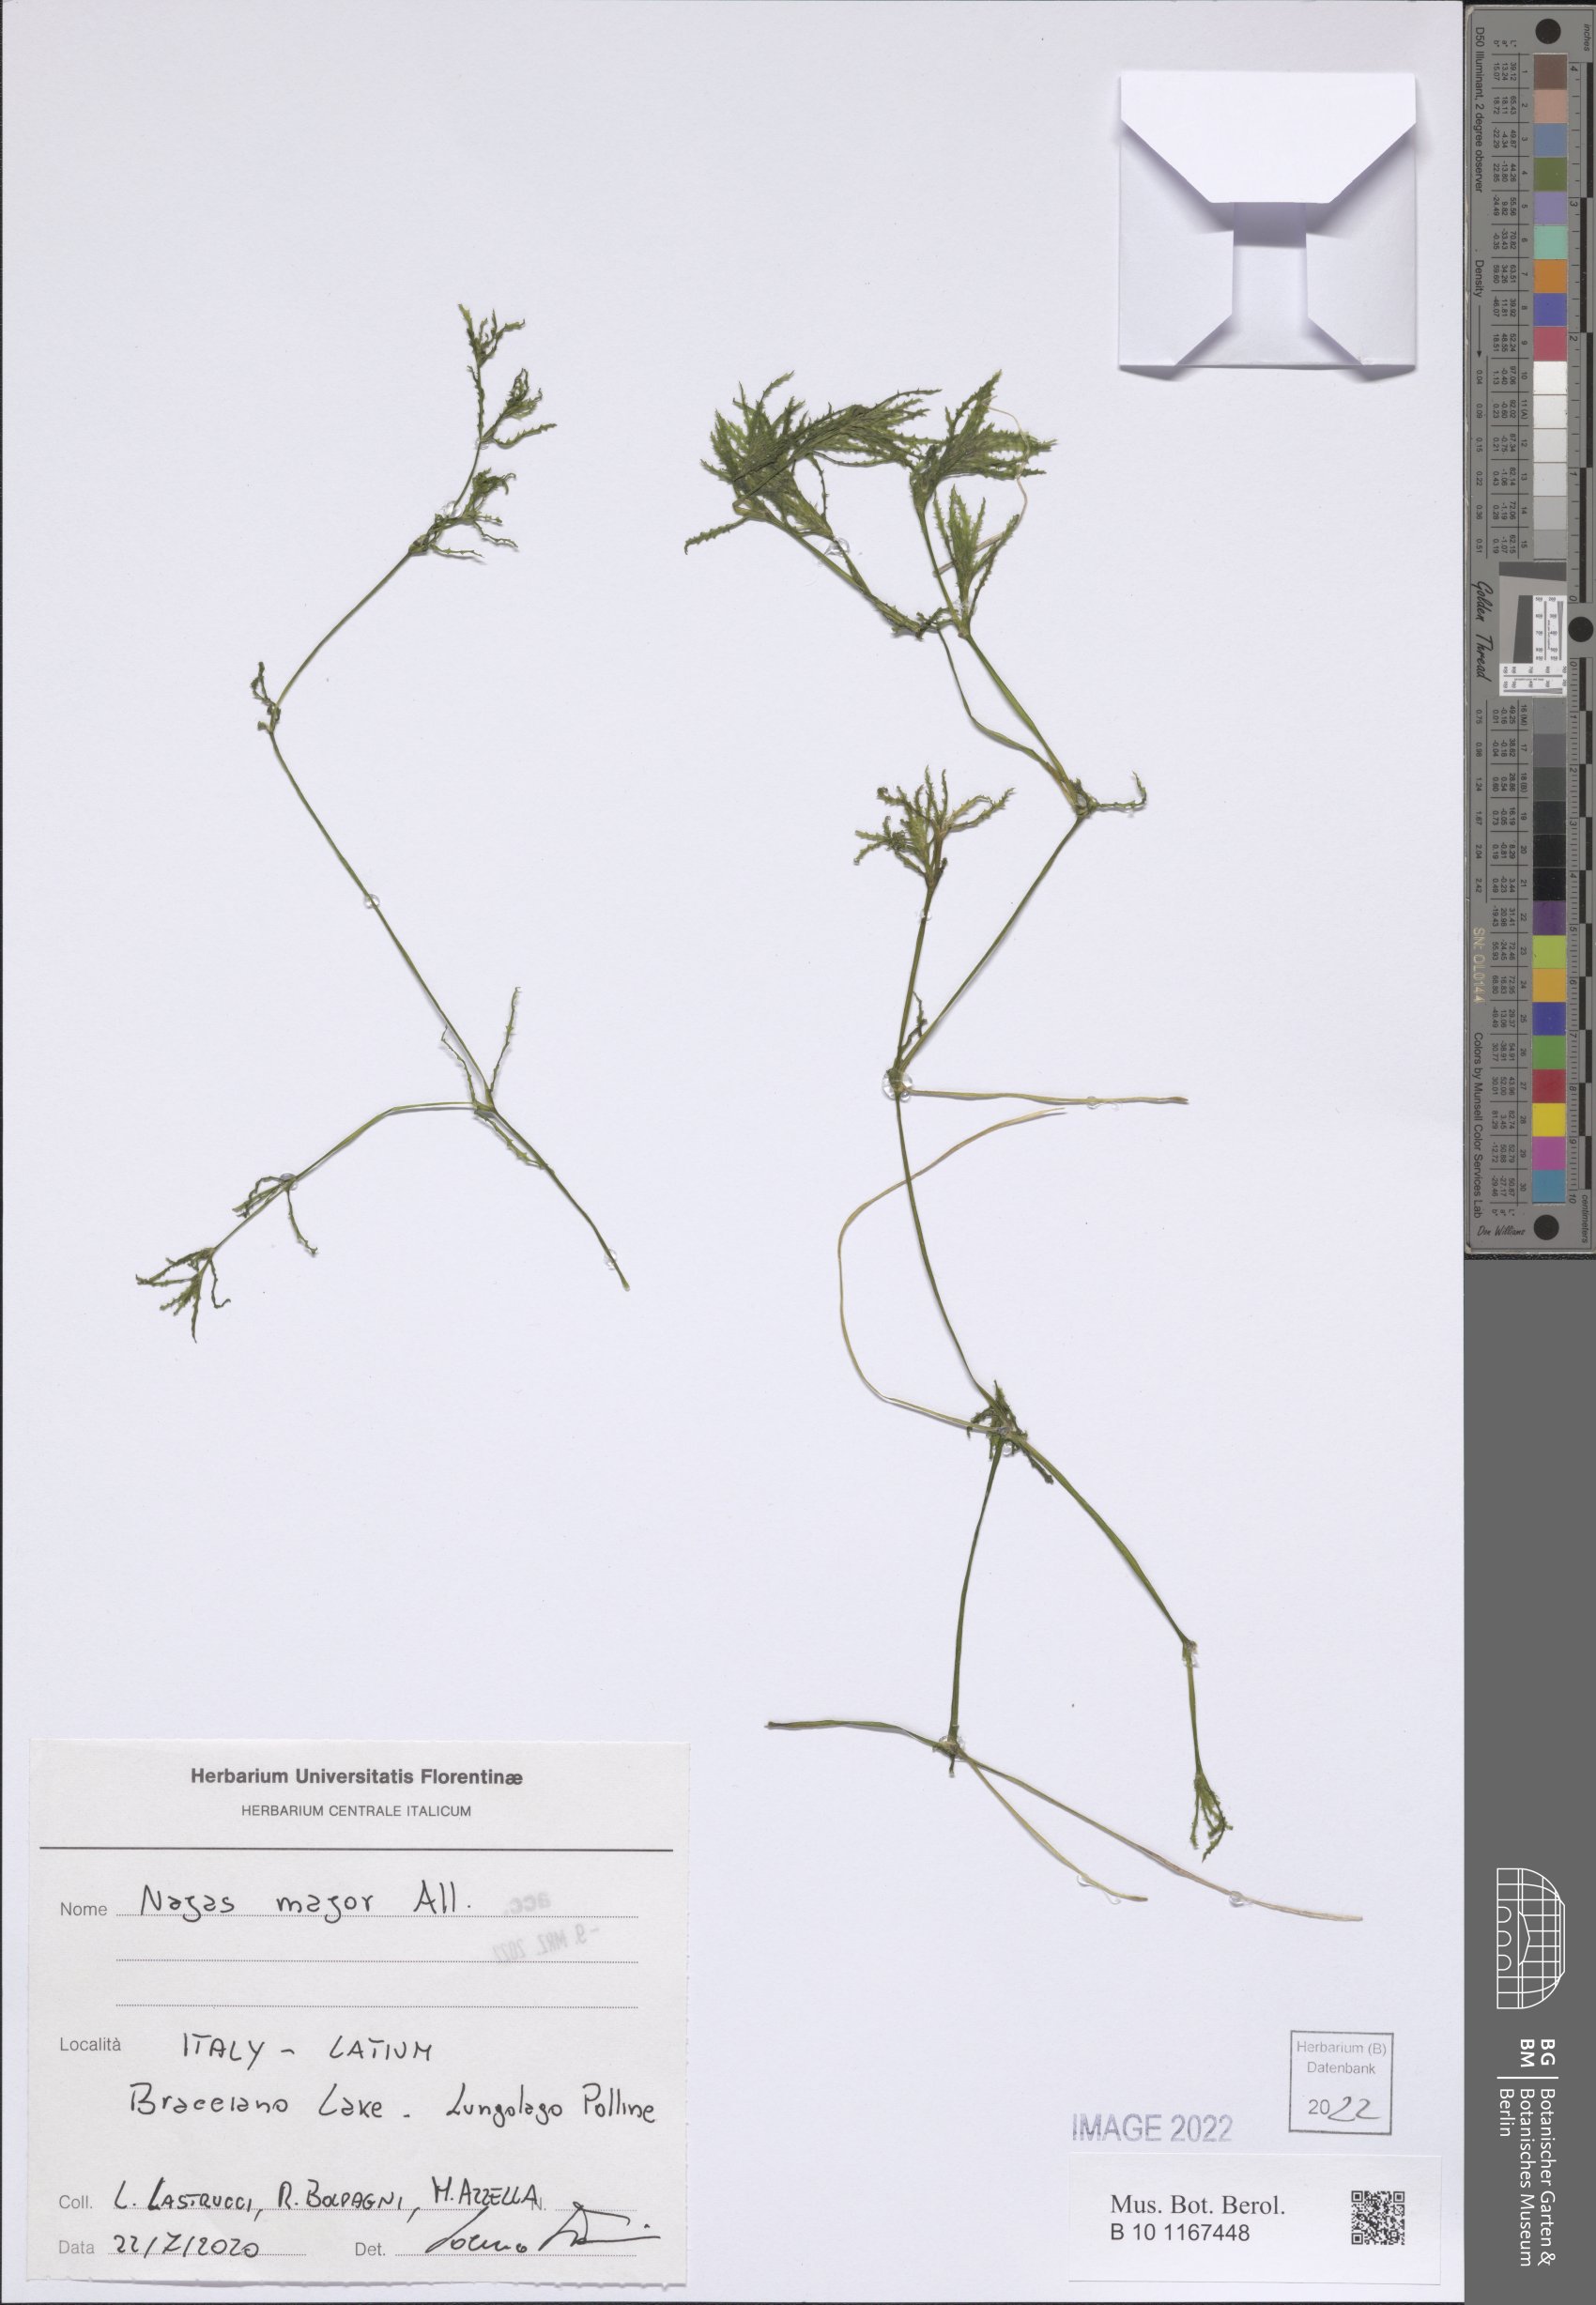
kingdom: Plantae
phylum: Tracheophyta
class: Liliopsida
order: Alismatales
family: Hydrocharitaceae
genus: Najas
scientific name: Najas major
